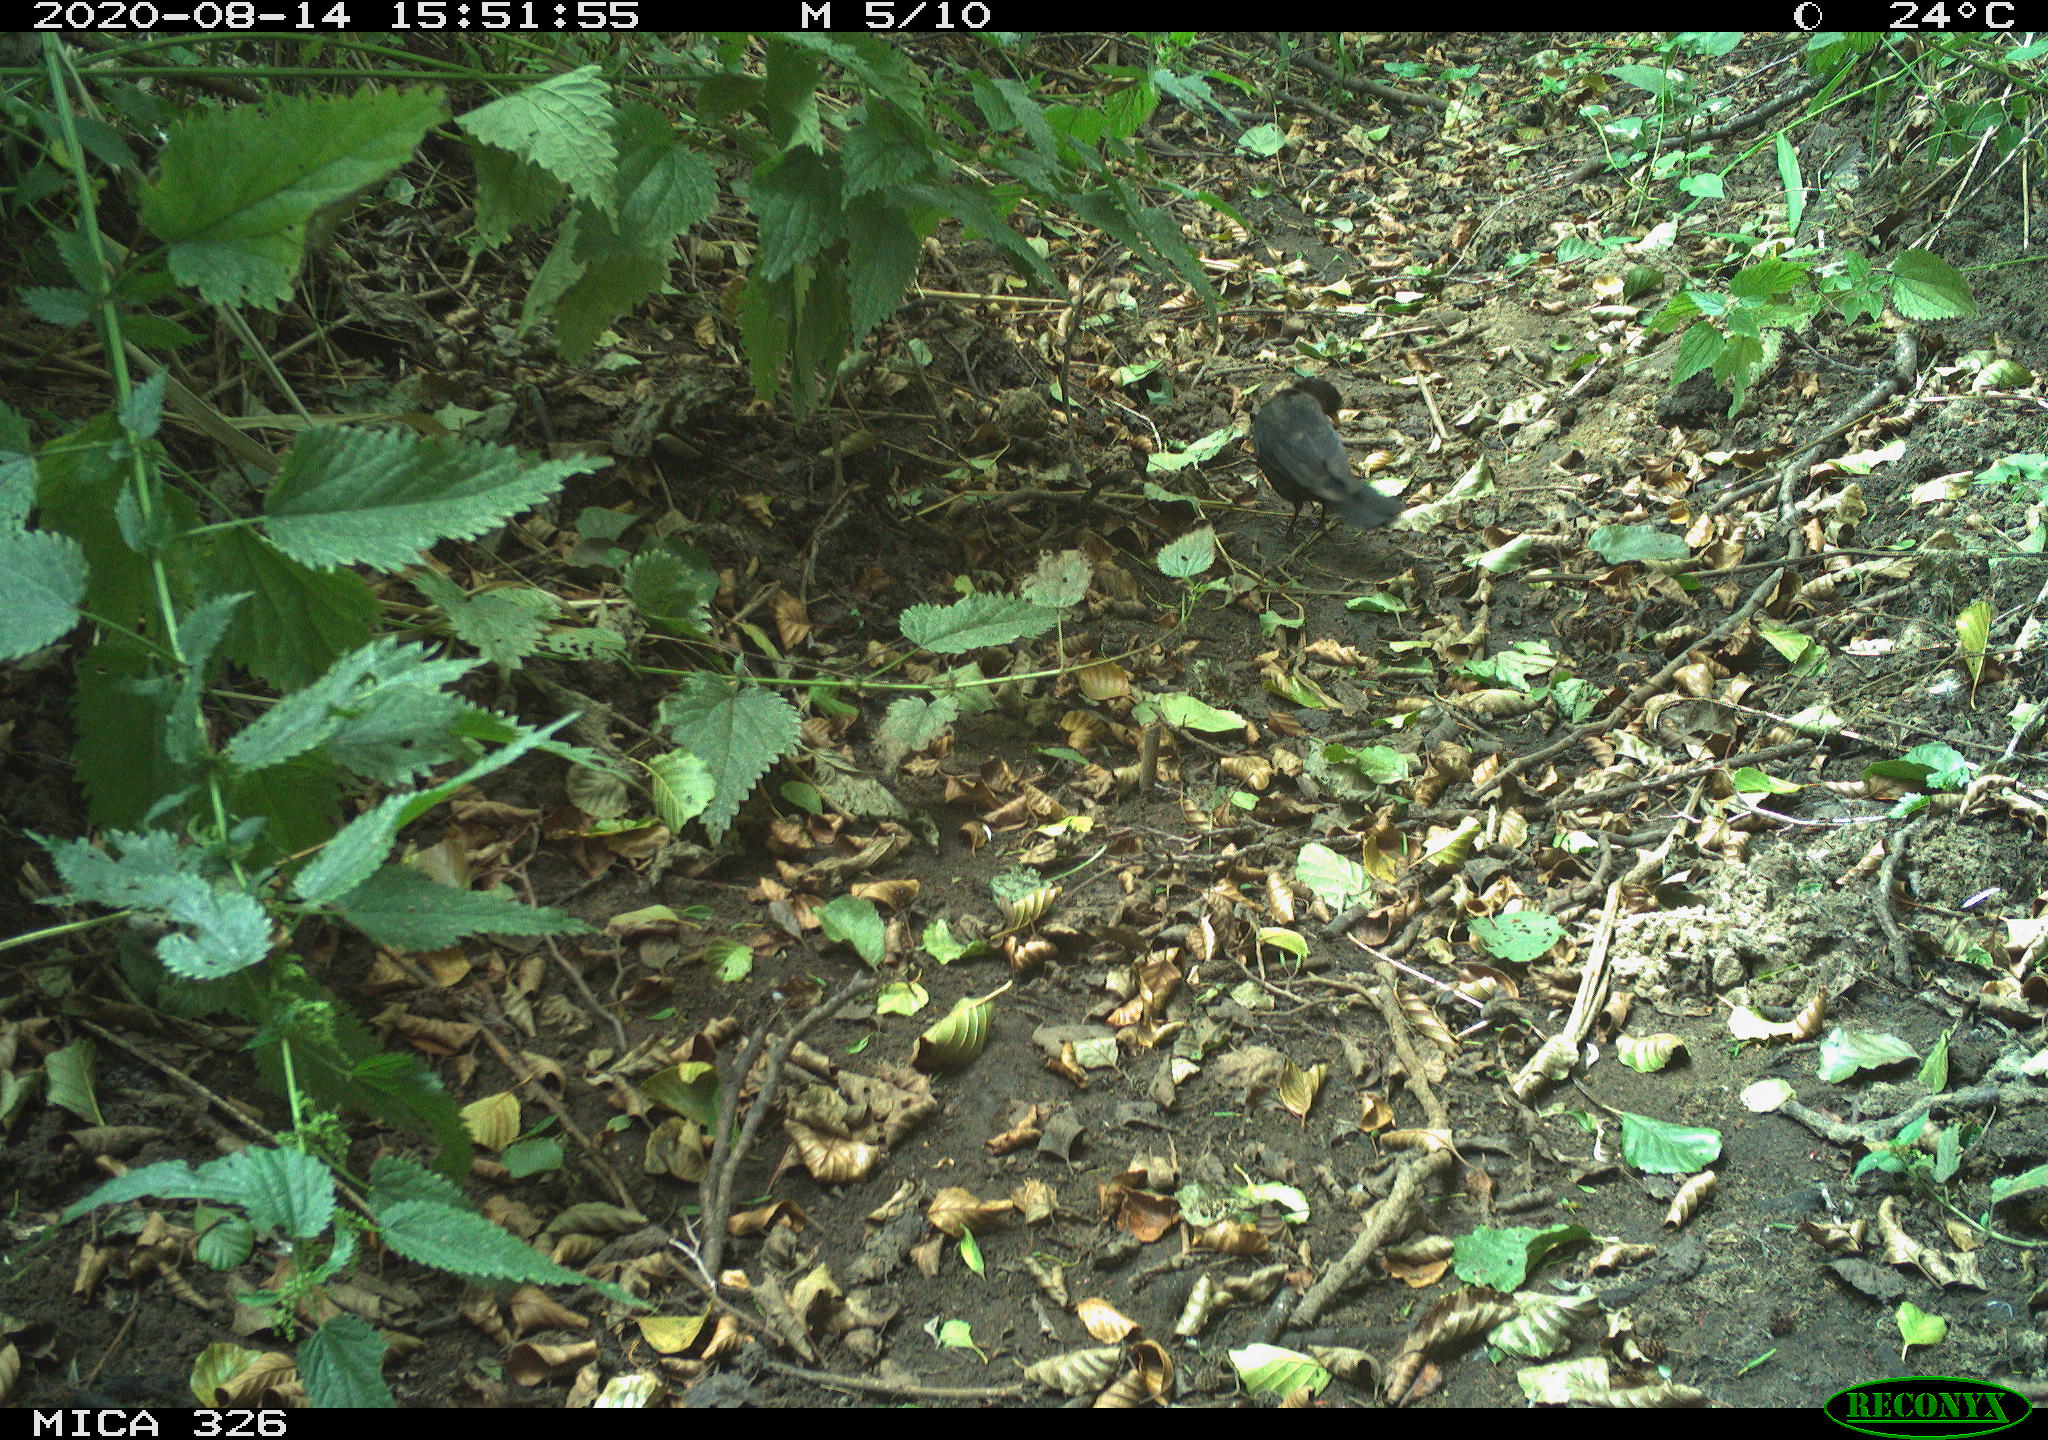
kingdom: Animalia
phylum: Chordata
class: Aves
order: Passeriformes
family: Turdidae
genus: Turdus
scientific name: Turdus merula
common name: Common blackbird
